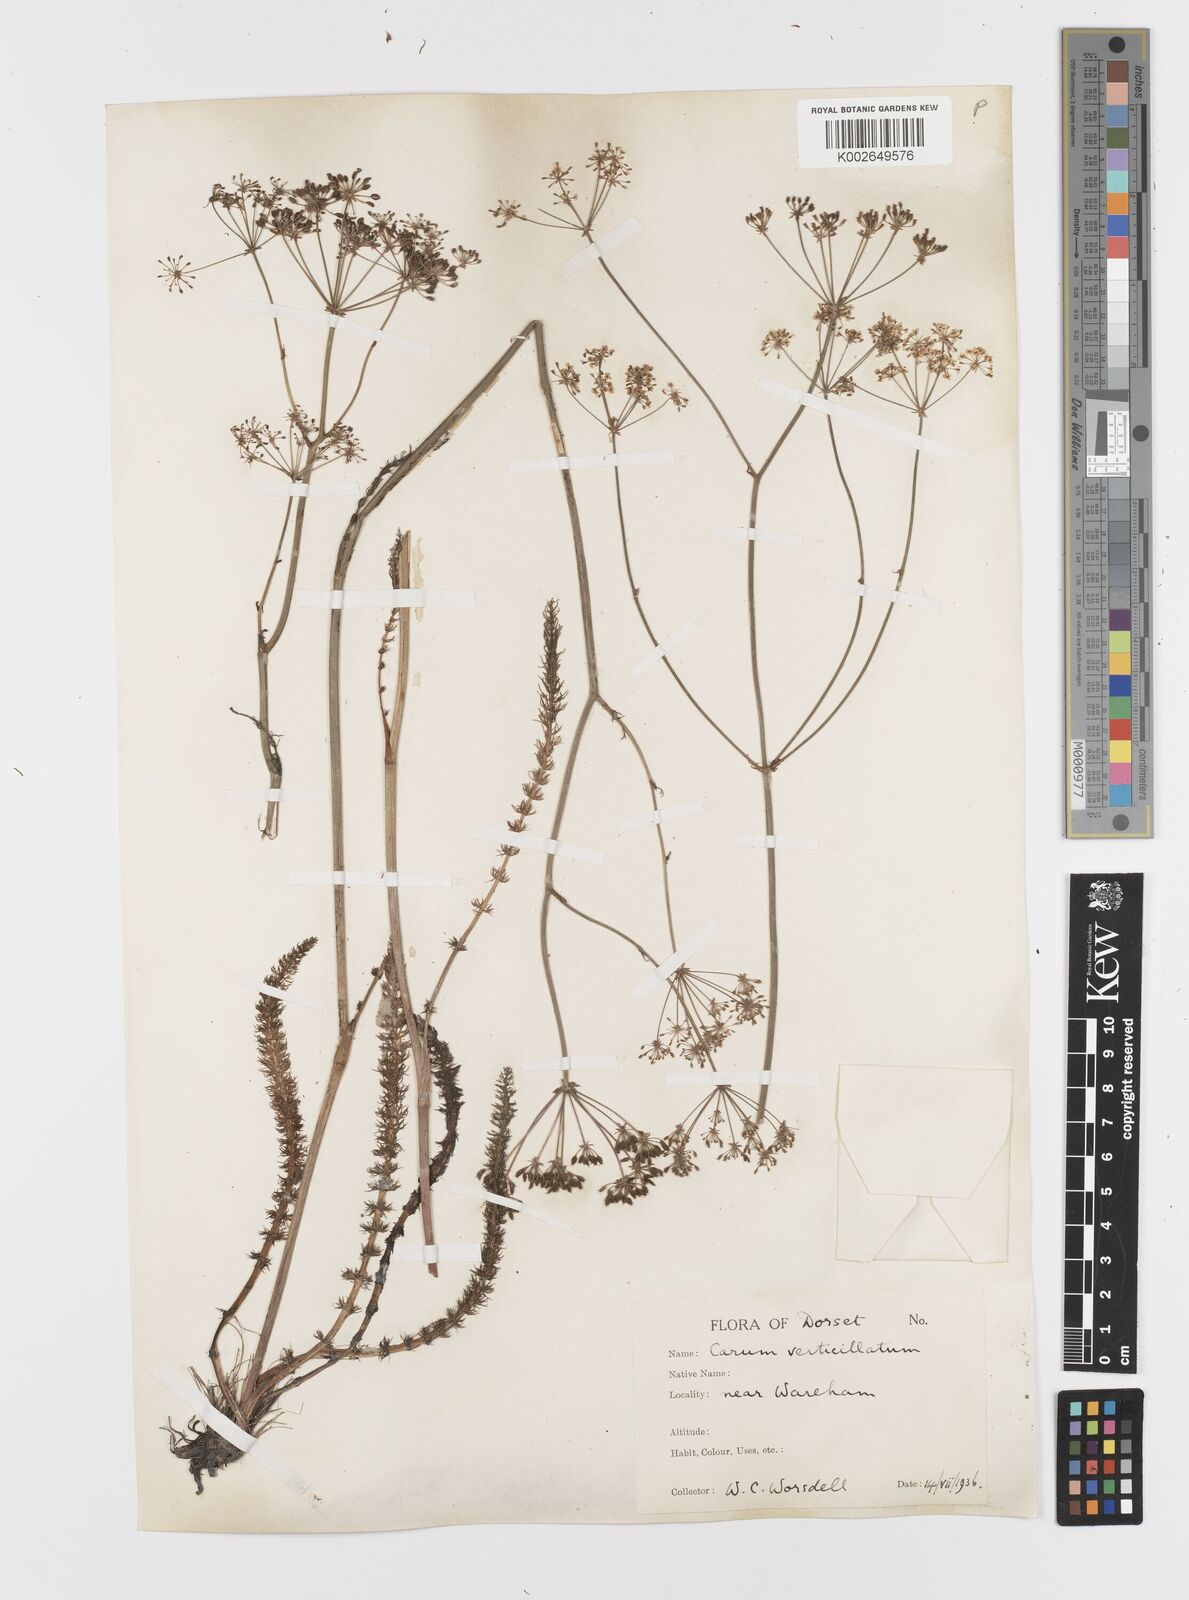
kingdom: Plantae
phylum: Tracheophyta
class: Magnoliopsida
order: Apiales
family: Apiaceae
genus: Trocdaris
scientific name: Trocdaris verticillatum
